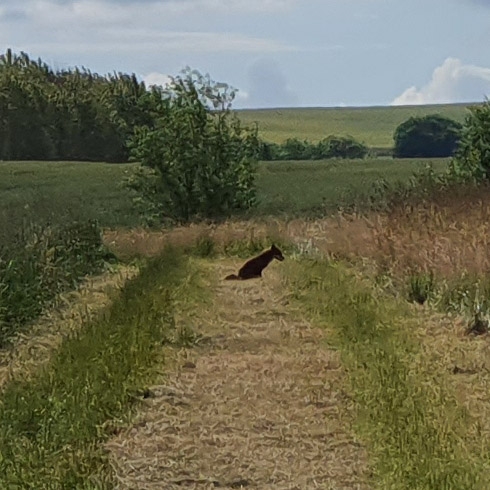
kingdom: Animalia
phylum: Chordata
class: Mammalia
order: Carnivora
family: Canidae
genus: Vulpes
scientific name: Vulpes vulpes
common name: Ræv
